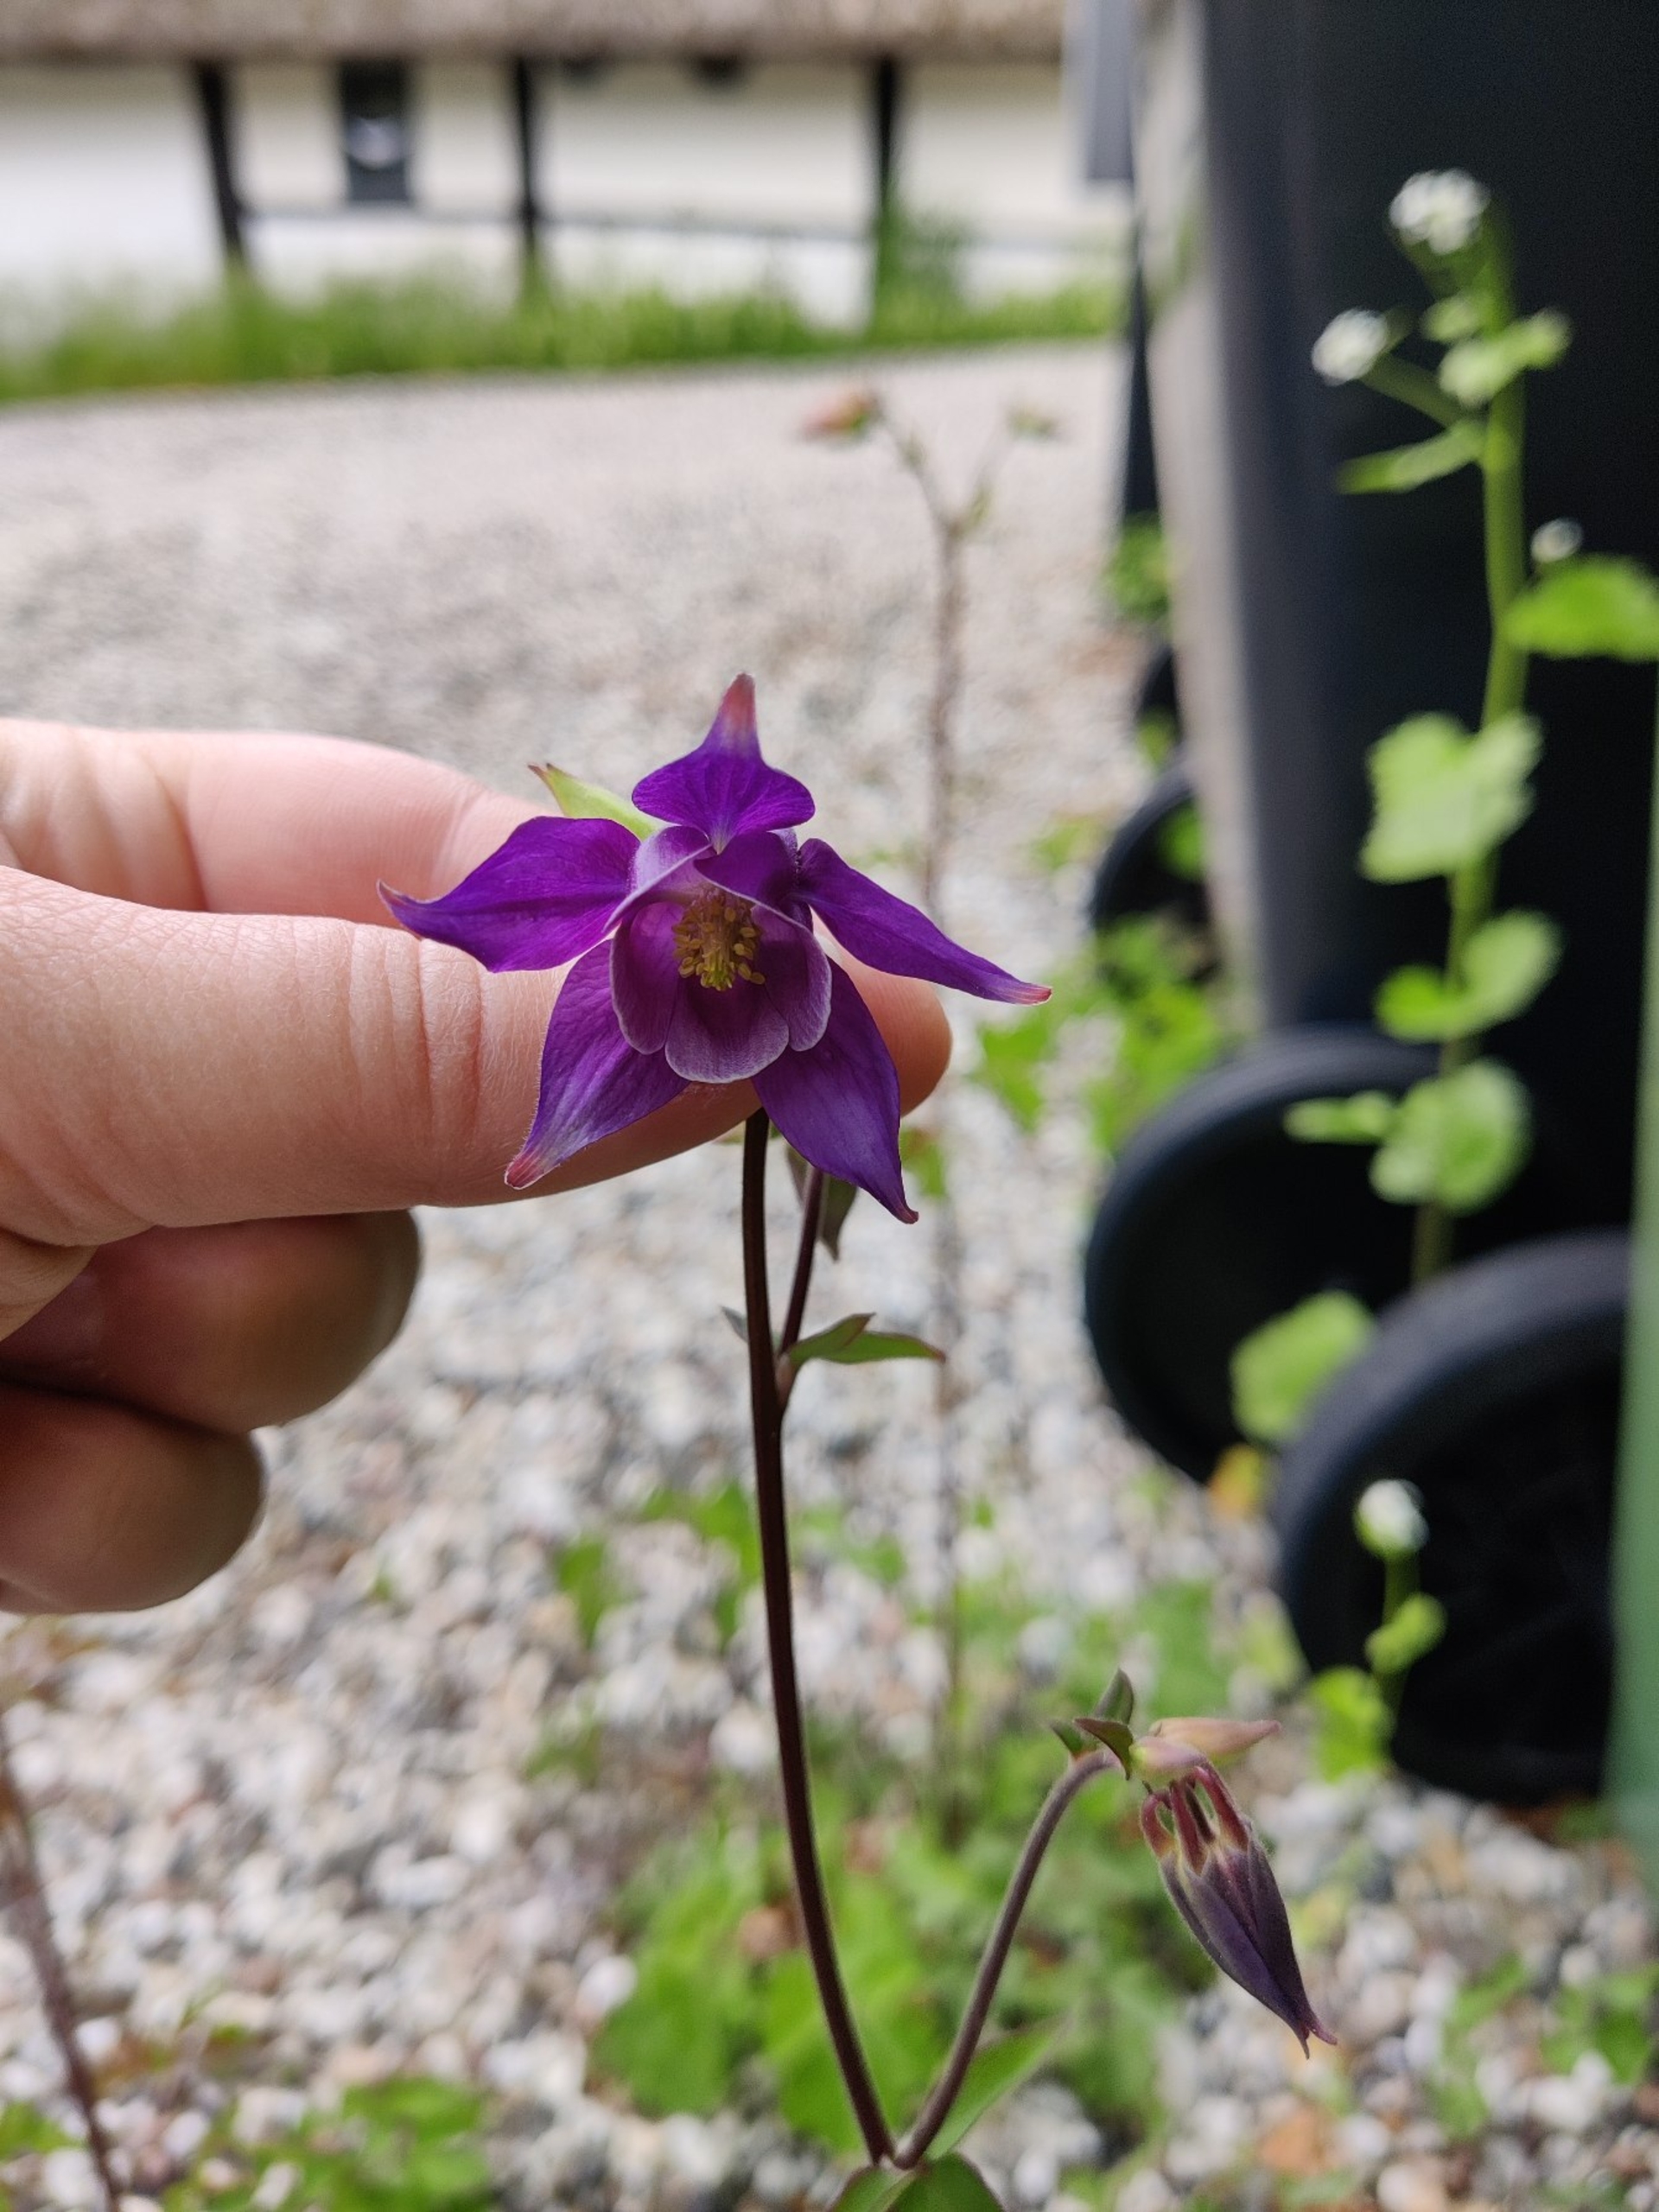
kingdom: Plantae
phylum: Tracheophyta
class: Magnoliopsida
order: Ranunculales
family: Ranunculaceae
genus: Aquilegia
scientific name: Aquilegia vulgaris
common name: Akeleje
